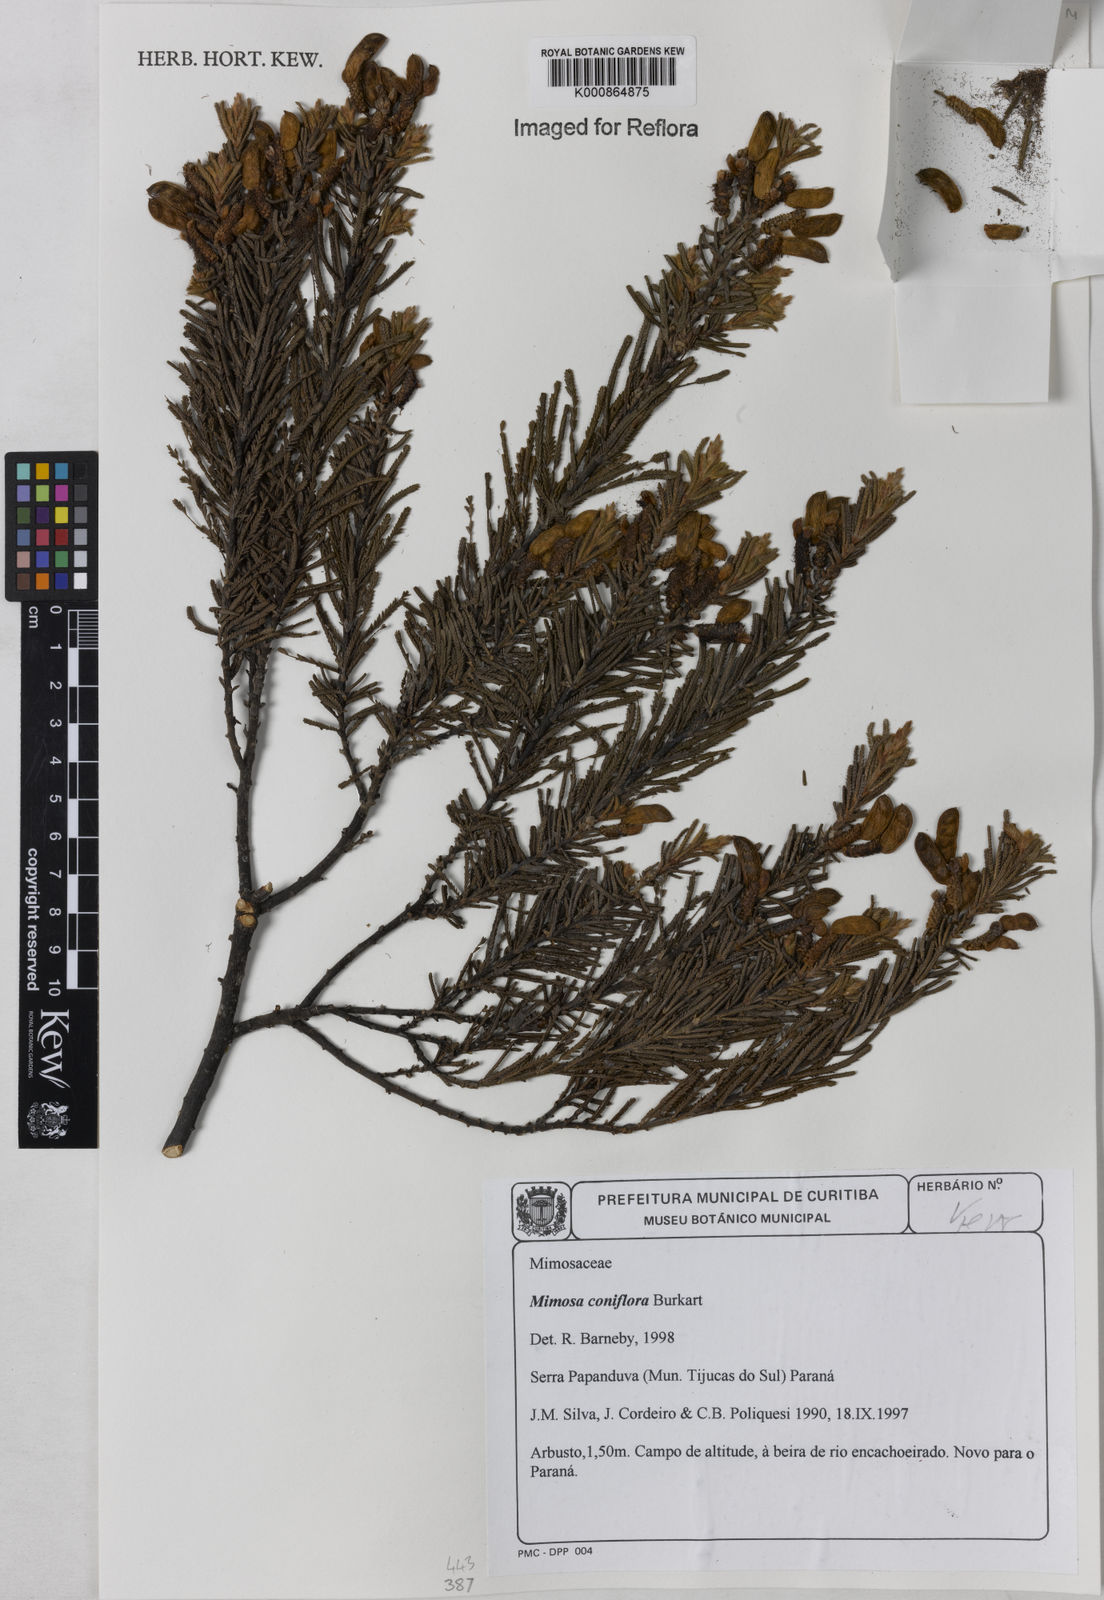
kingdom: Plantae
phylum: Tracheophyta
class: Magnoliopsida
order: Fabales
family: Fabaceae
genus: Mimosa
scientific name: Mimosa coniflora
